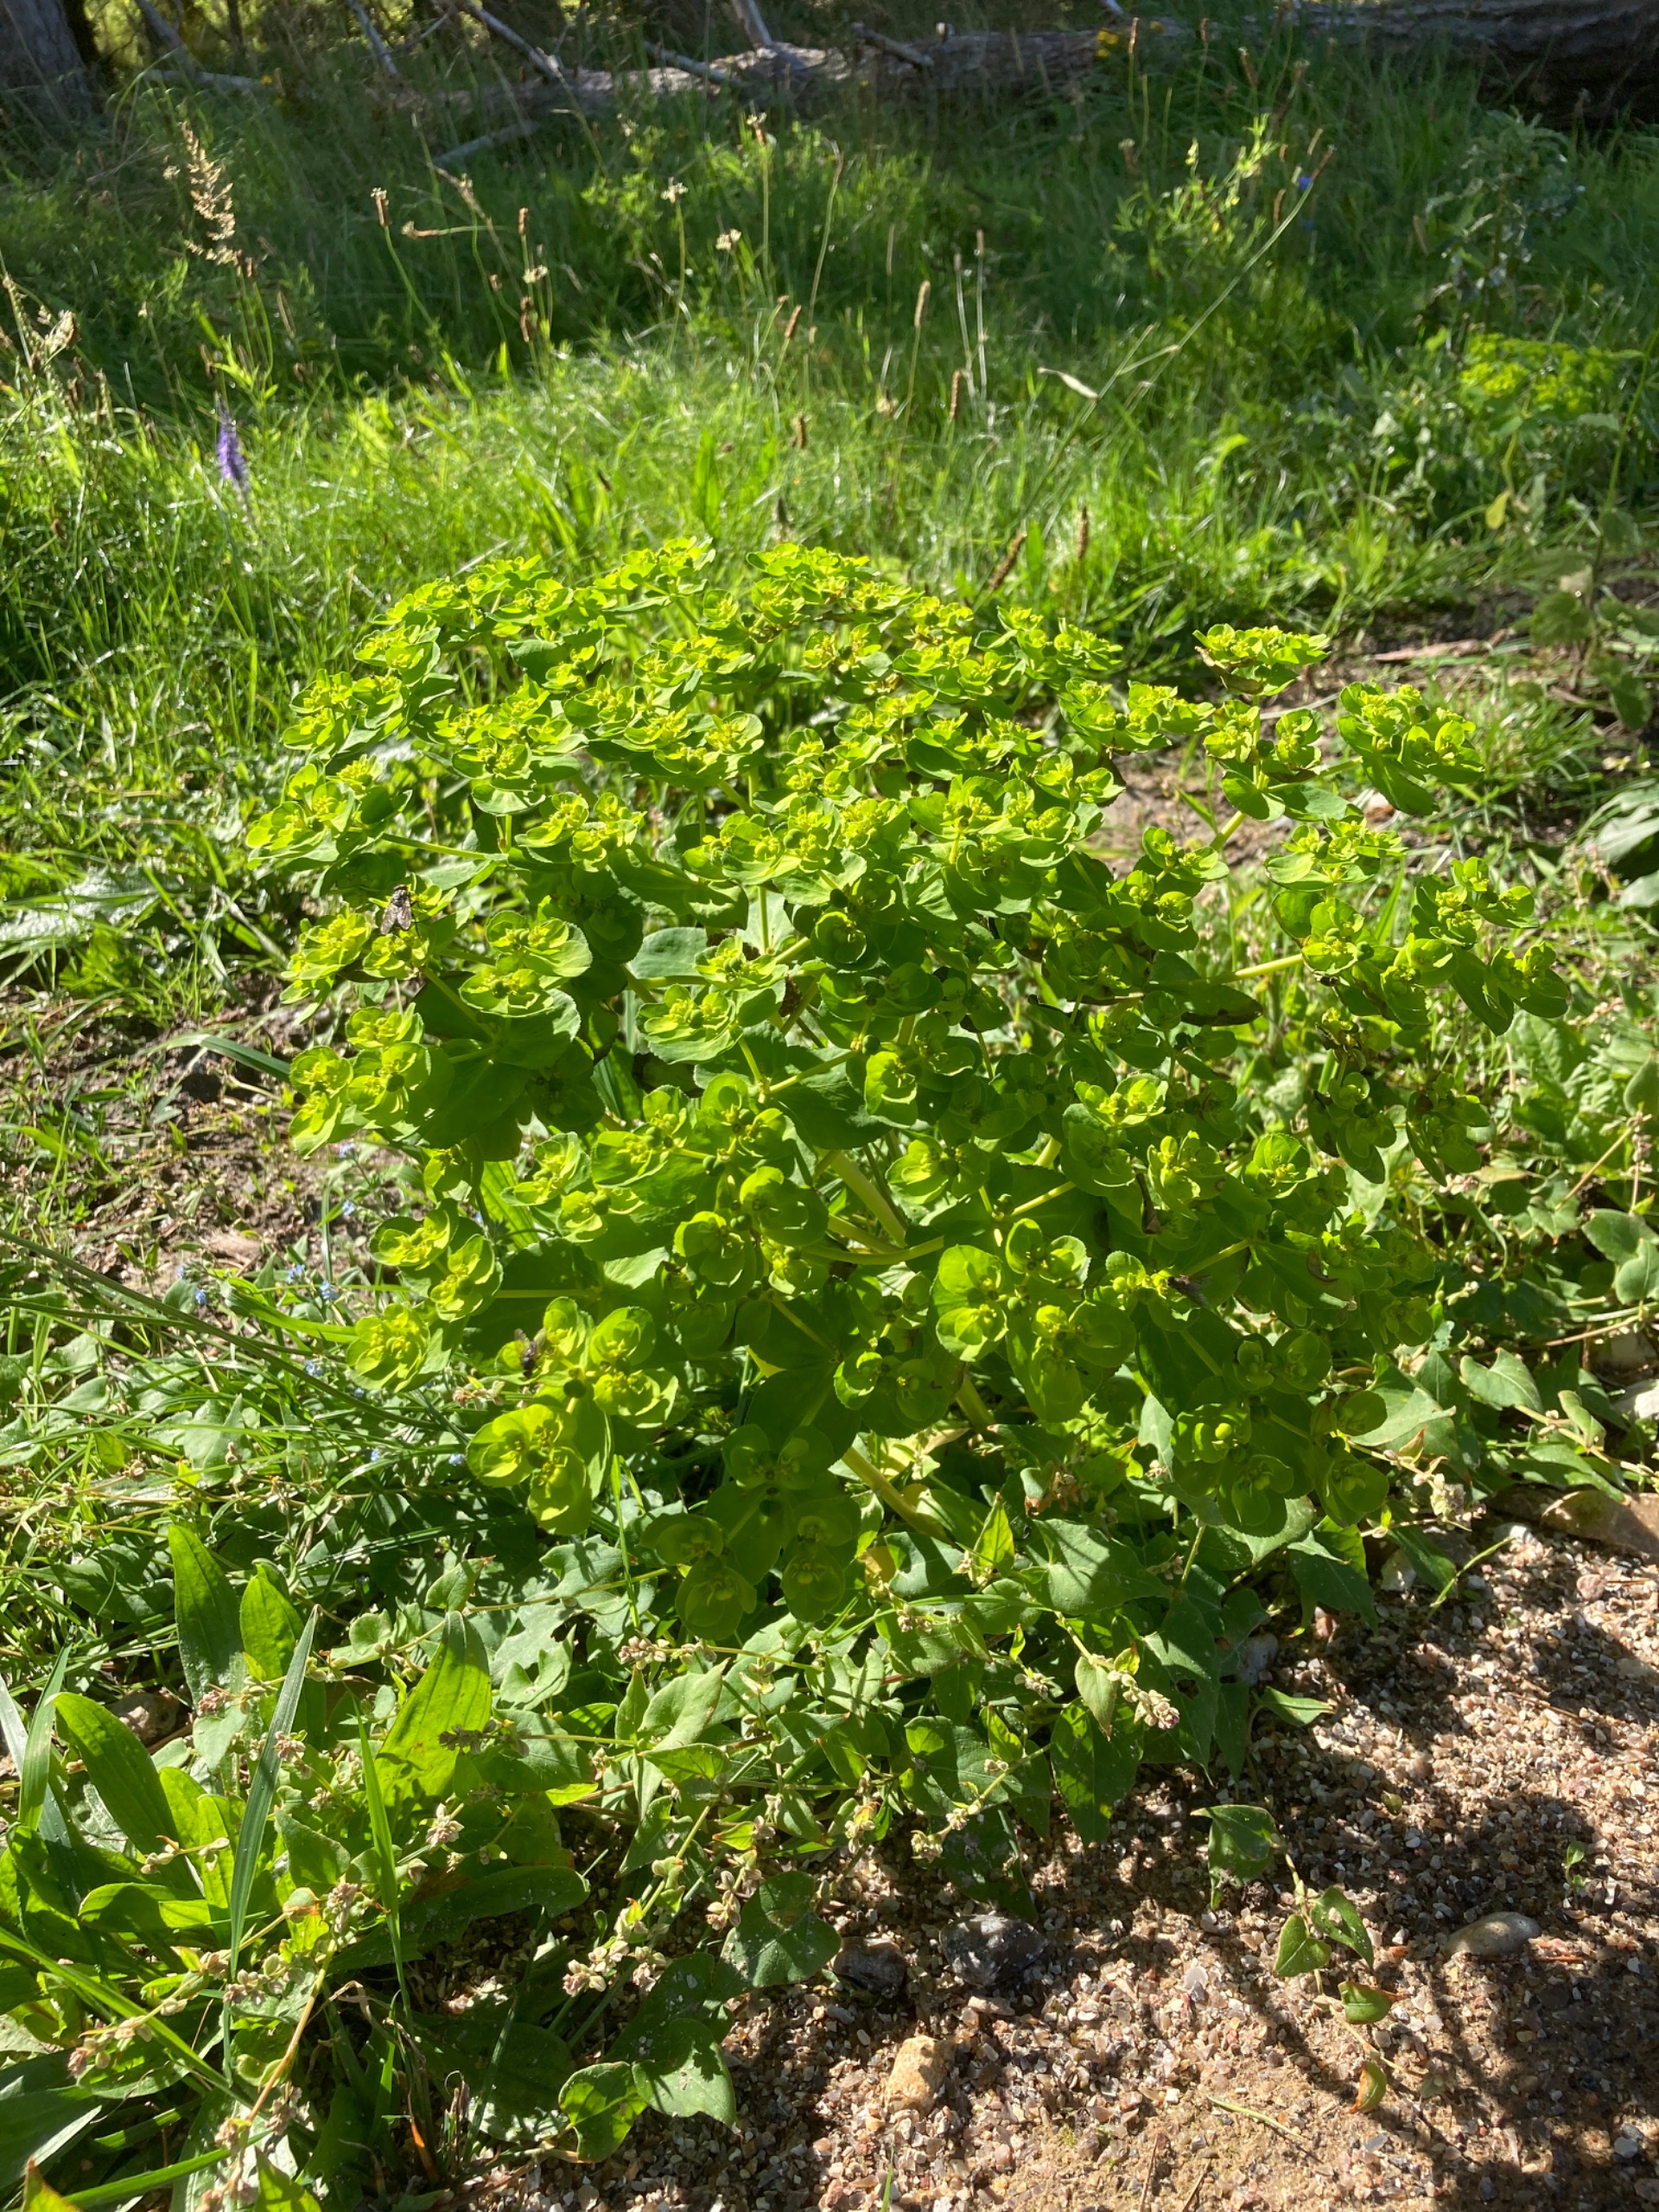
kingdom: Plantae
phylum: Tracheophyta
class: Magnoliopsida
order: Malpighiales
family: Euphorbiaceae
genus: Euphorbia
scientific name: Euphorbia helioscopia
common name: Skærm-vortemælk
